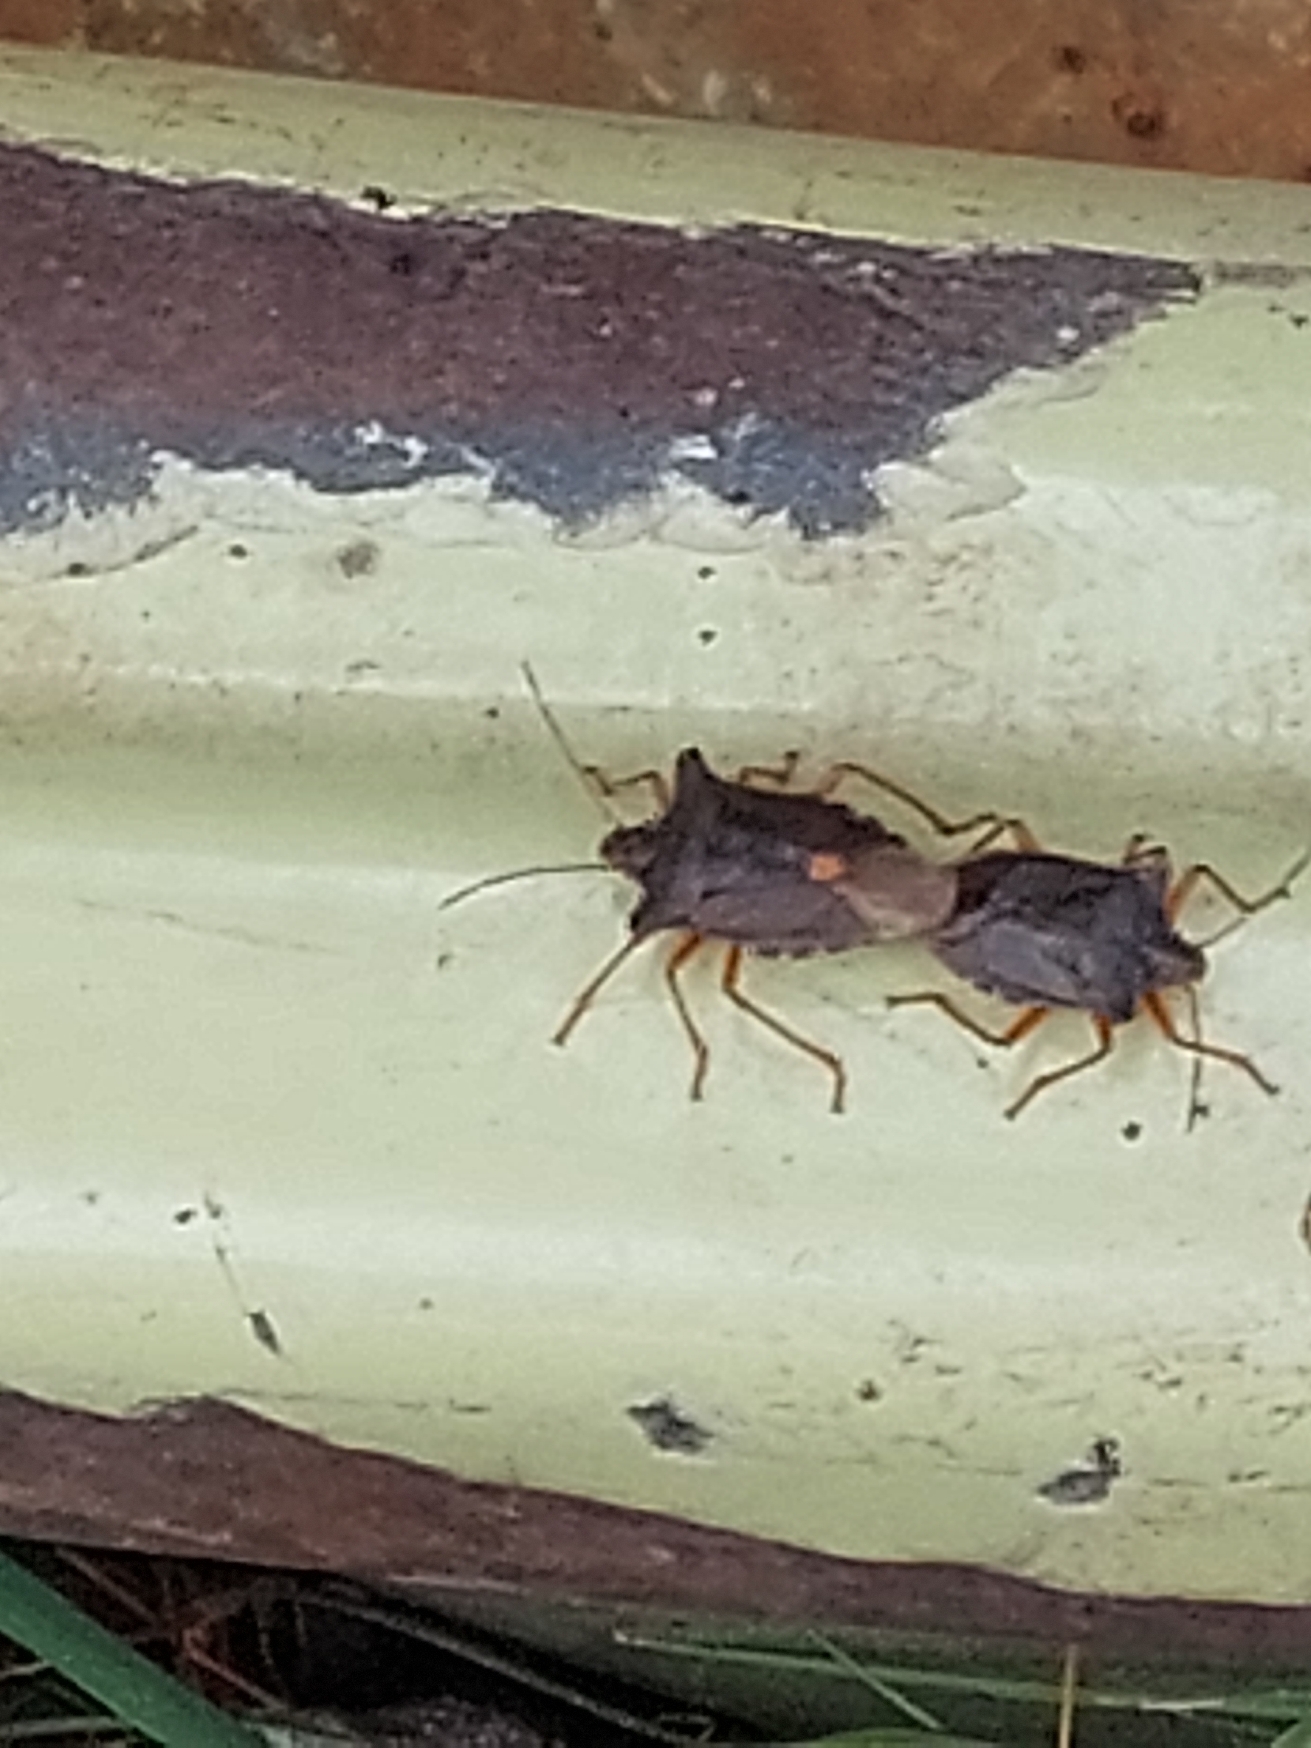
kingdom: Animalia
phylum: Arthropoda
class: Insecta
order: Hemiptera
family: Pentatomidae
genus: Pentatoma
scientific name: Pentatoma rufipes
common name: Rødbenet bredtæge
